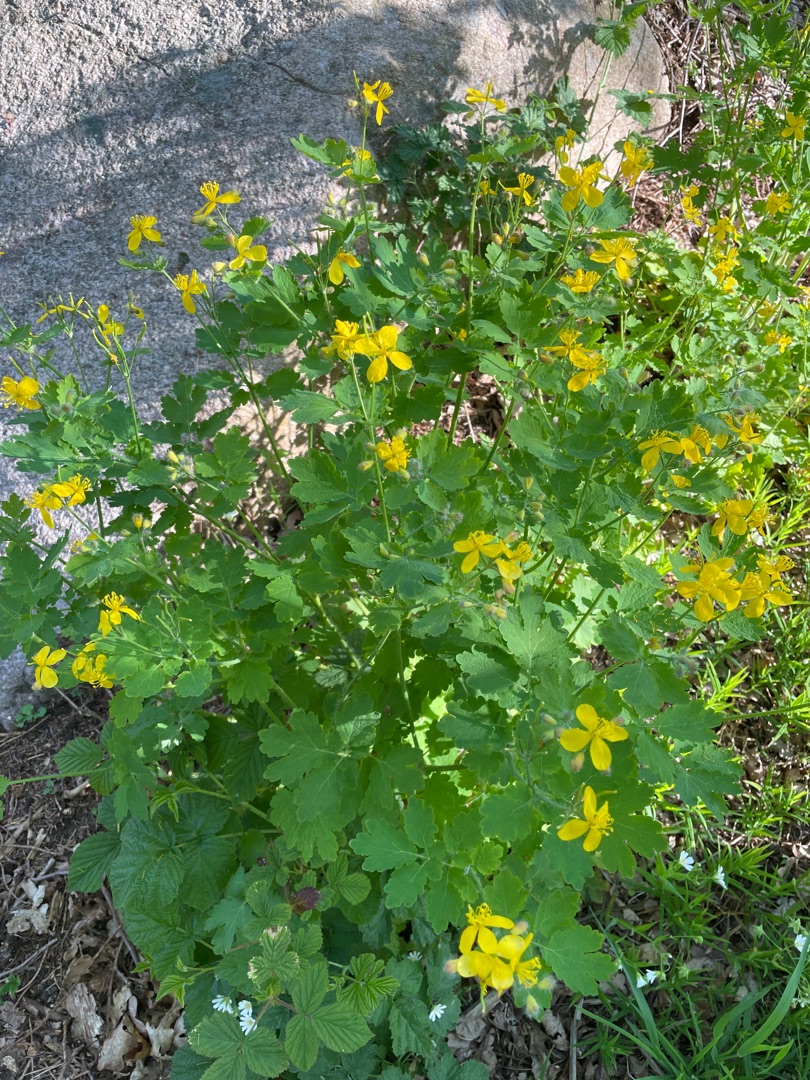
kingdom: Plantae
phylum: Tracheophyta
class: Magnoliopsida
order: Ranunculales
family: Papaveraceae
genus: Chelidonium
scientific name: Chelidonium majus
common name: Svaleurt
